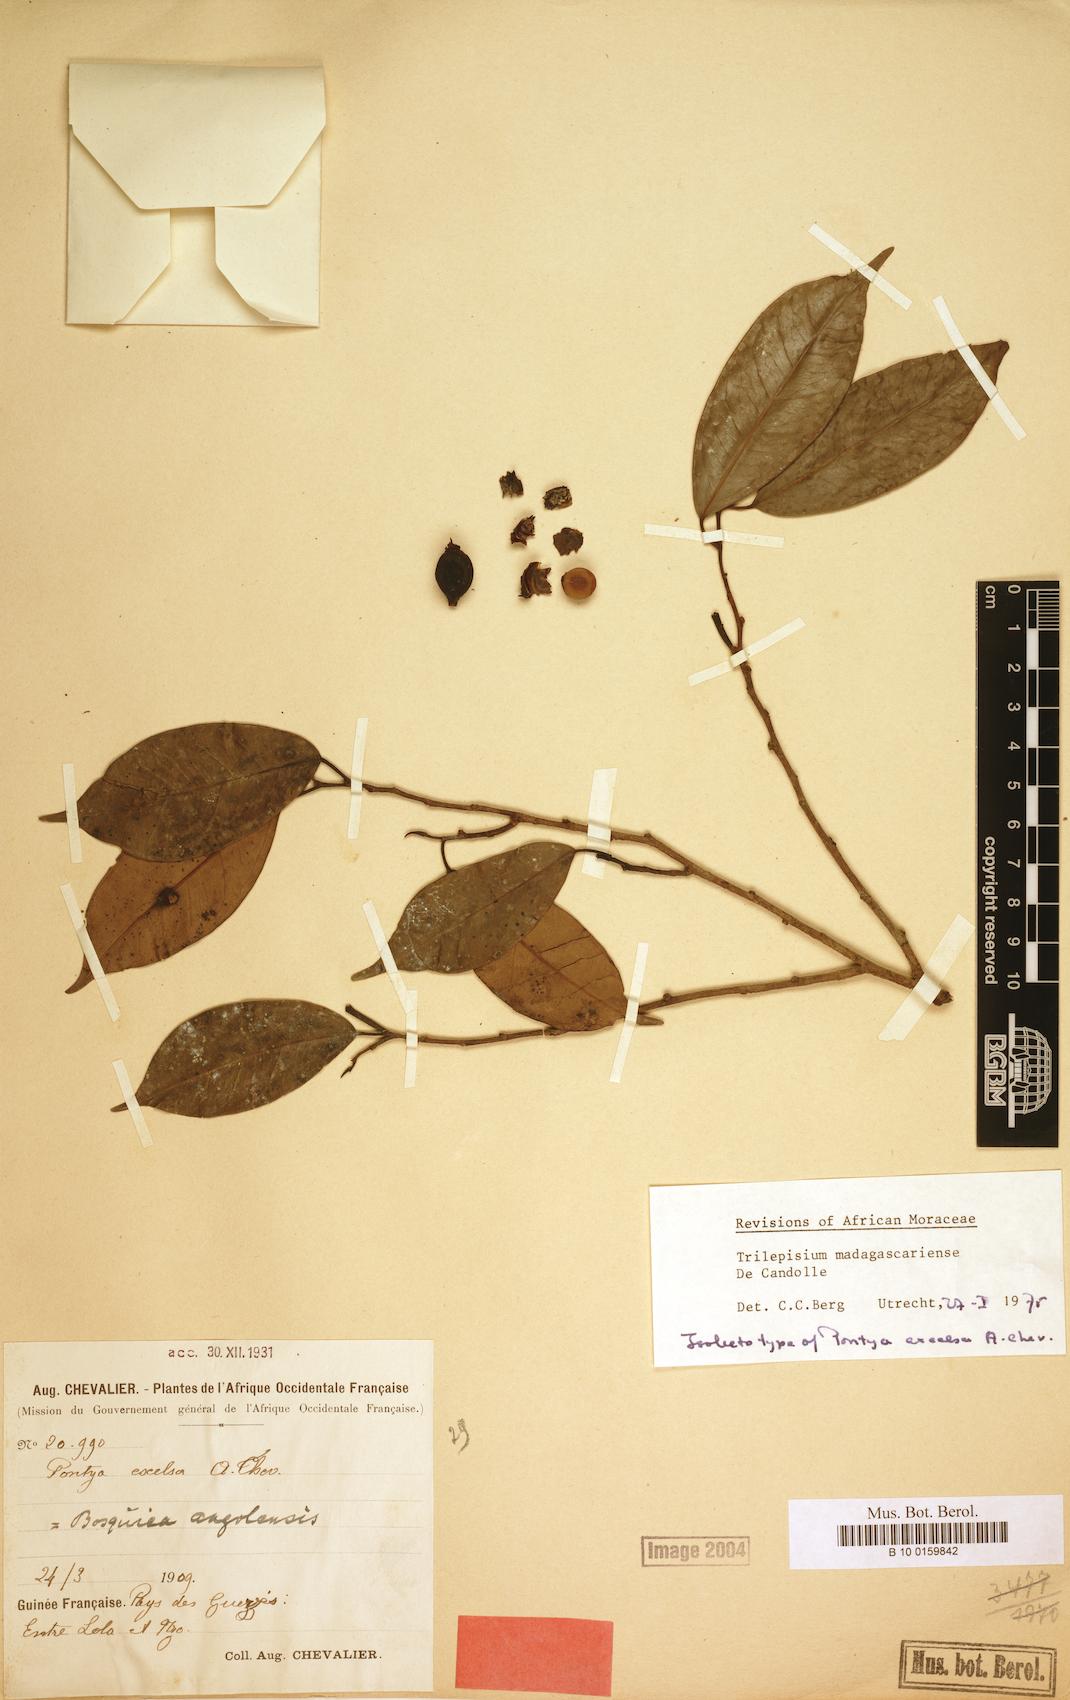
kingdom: Plantae
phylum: Tracheophyta
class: Magnoliopsida
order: Rosales
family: Moraceae
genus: Trilepisium
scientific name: Trilepisium madagascariense
